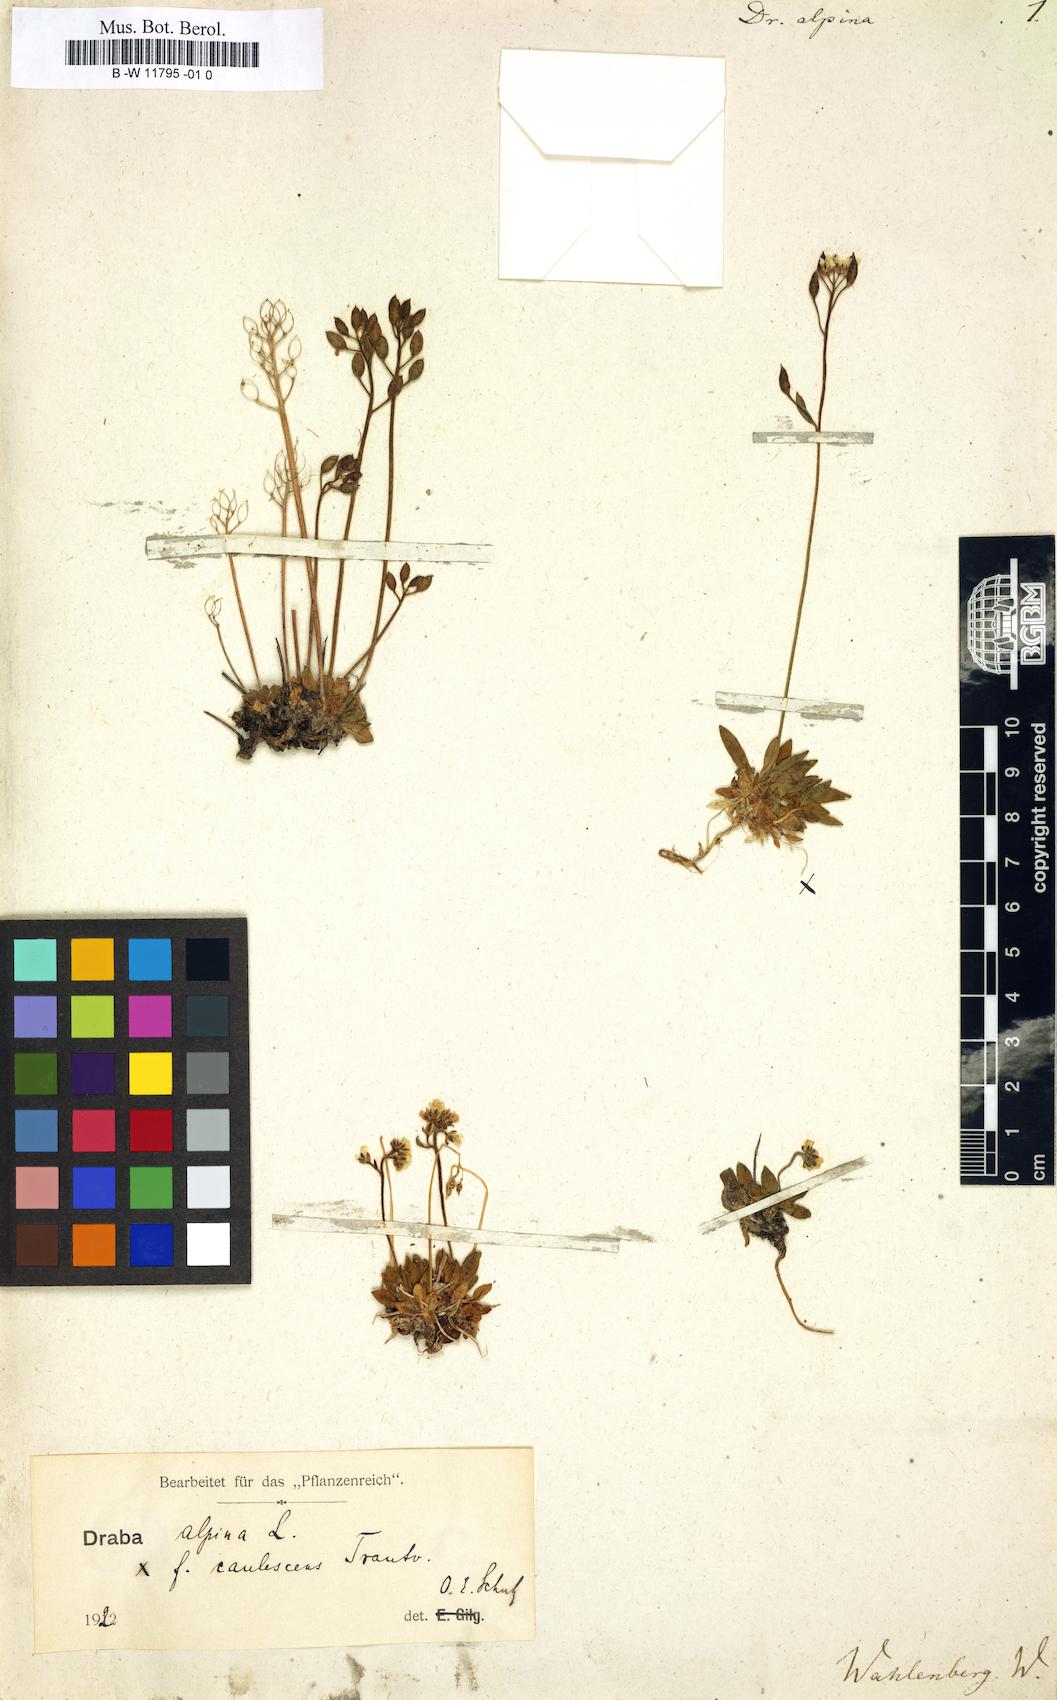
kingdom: Plantae
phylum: Tracheophyta
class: Magnoliopsida
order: Brassicales
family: Brassicaceae
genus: Draba
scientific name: Draba alpina
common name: Alpine draba
